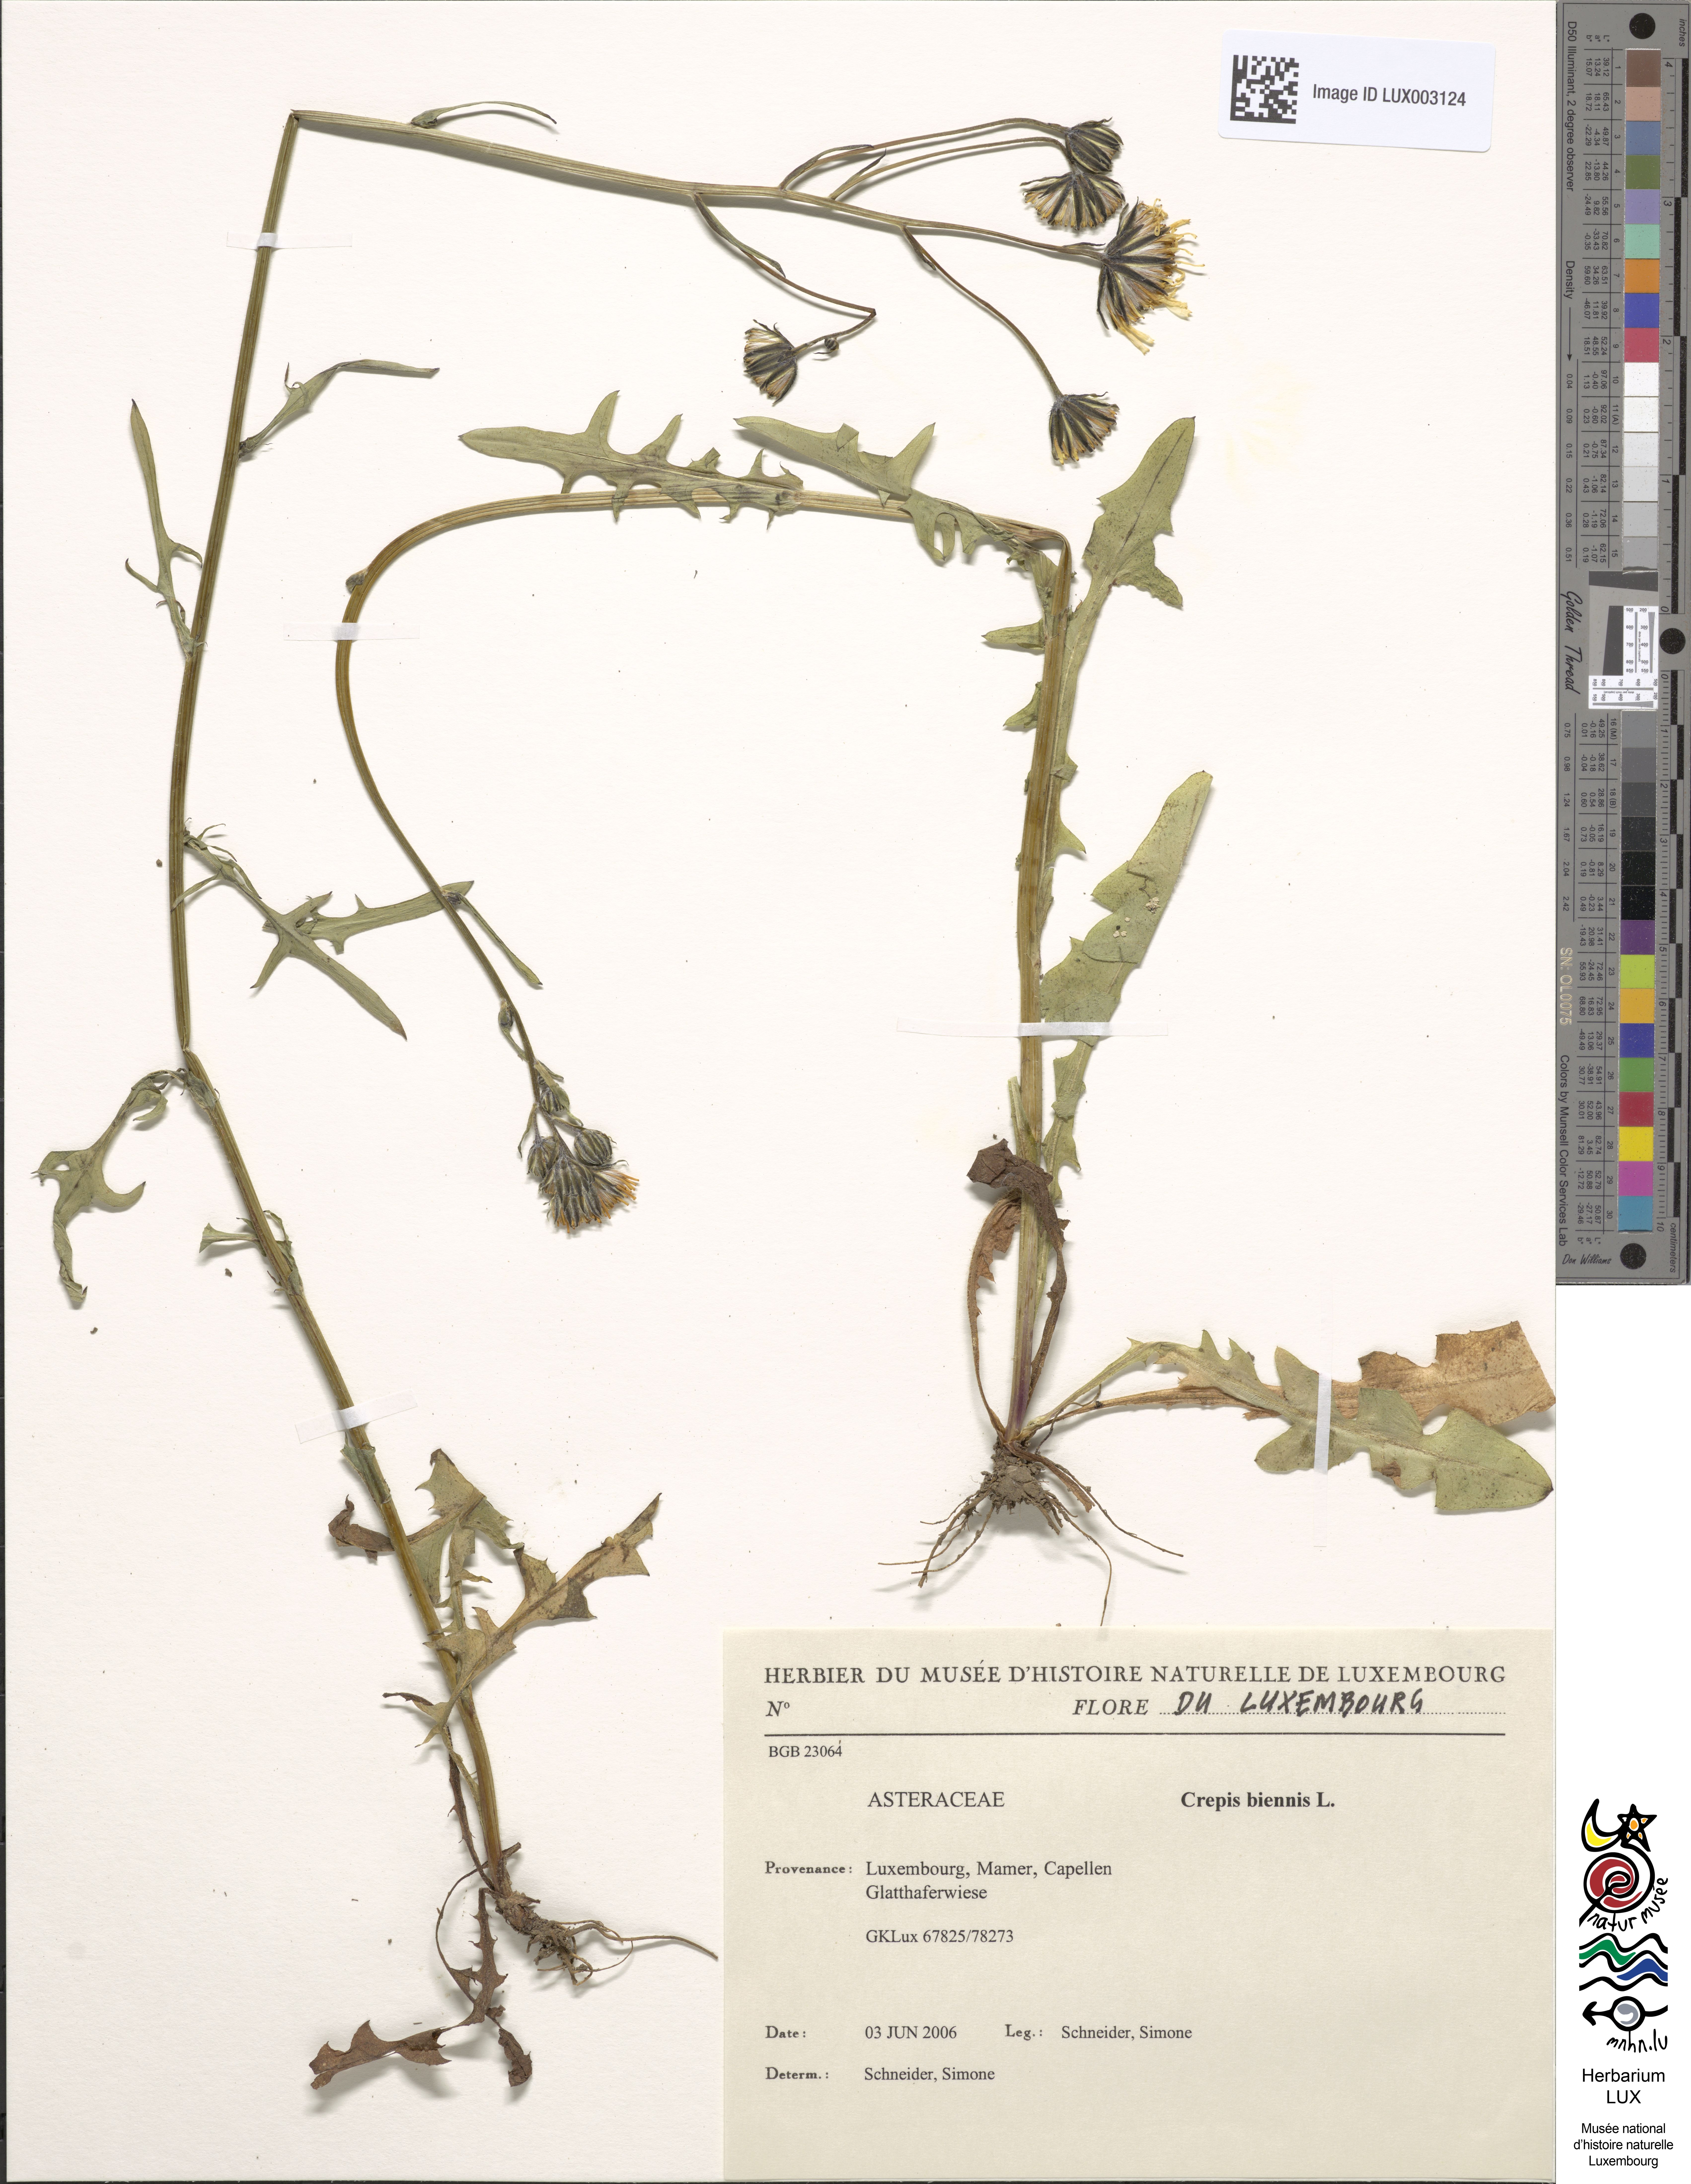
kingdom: Plantae
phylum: Tracheophyta
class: Magnoliopsida
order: Asterales
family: Asteraceae
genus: Crepis
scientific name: Crepis biennis
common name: Rough hawk's-beard
